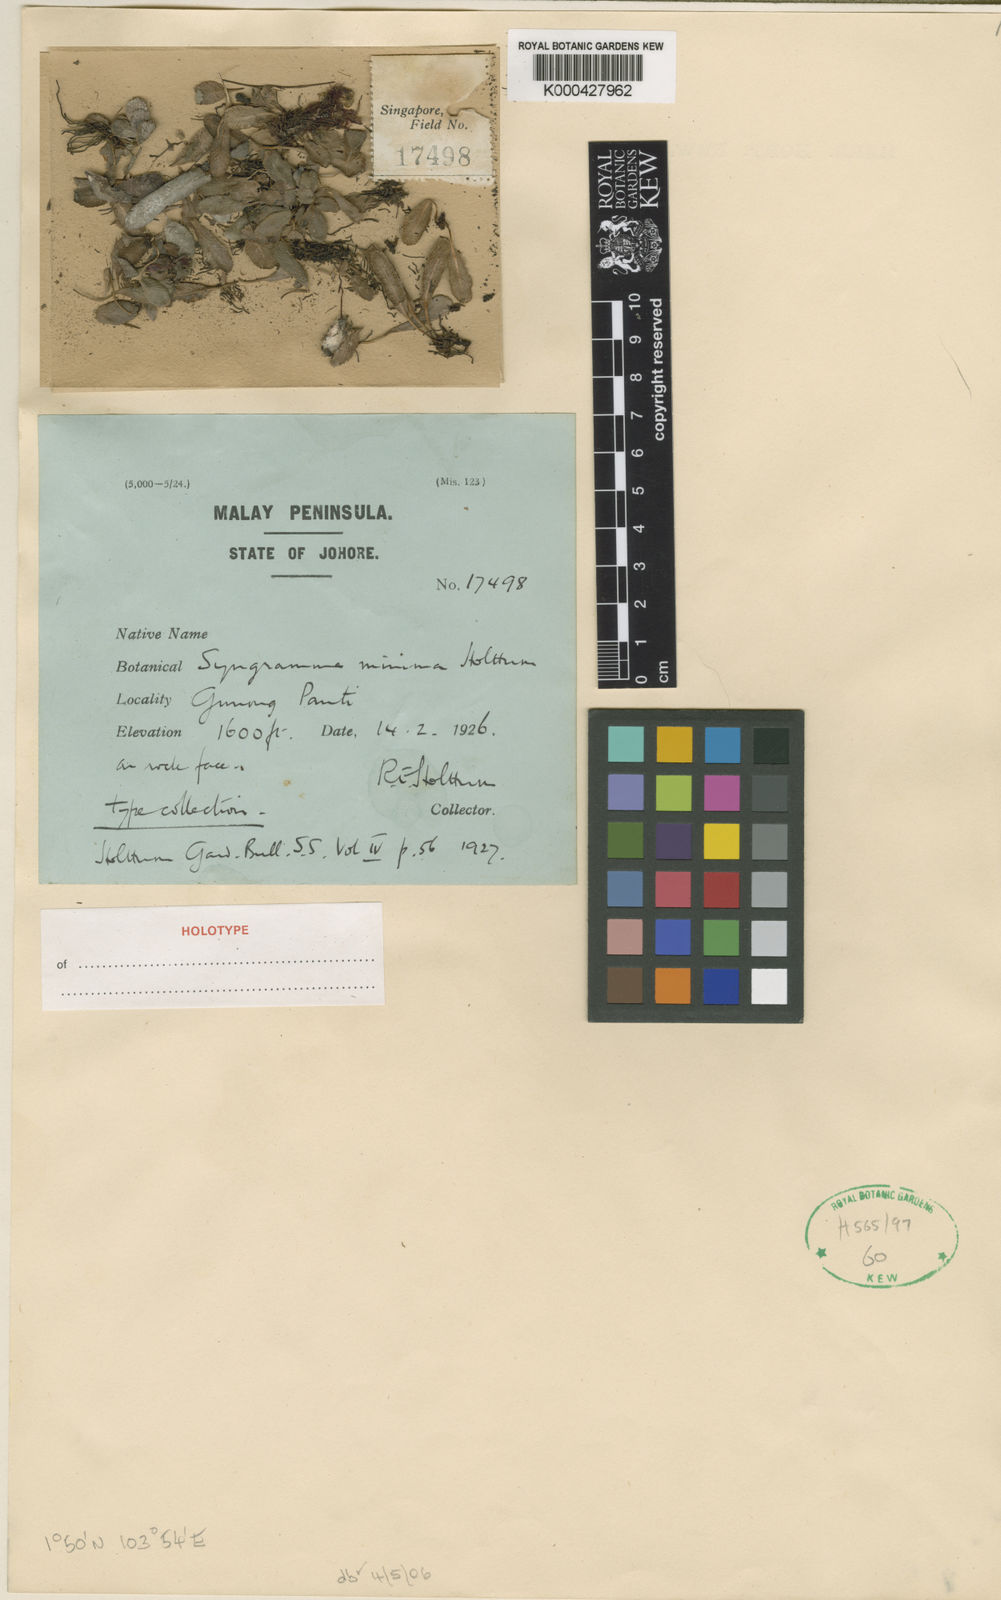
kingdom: Plantae
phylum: Tracheophyta
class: Polypodiopsida
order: Polypodiales
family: Pteridaceae
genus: Syngramma
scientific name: Syngramma minima
